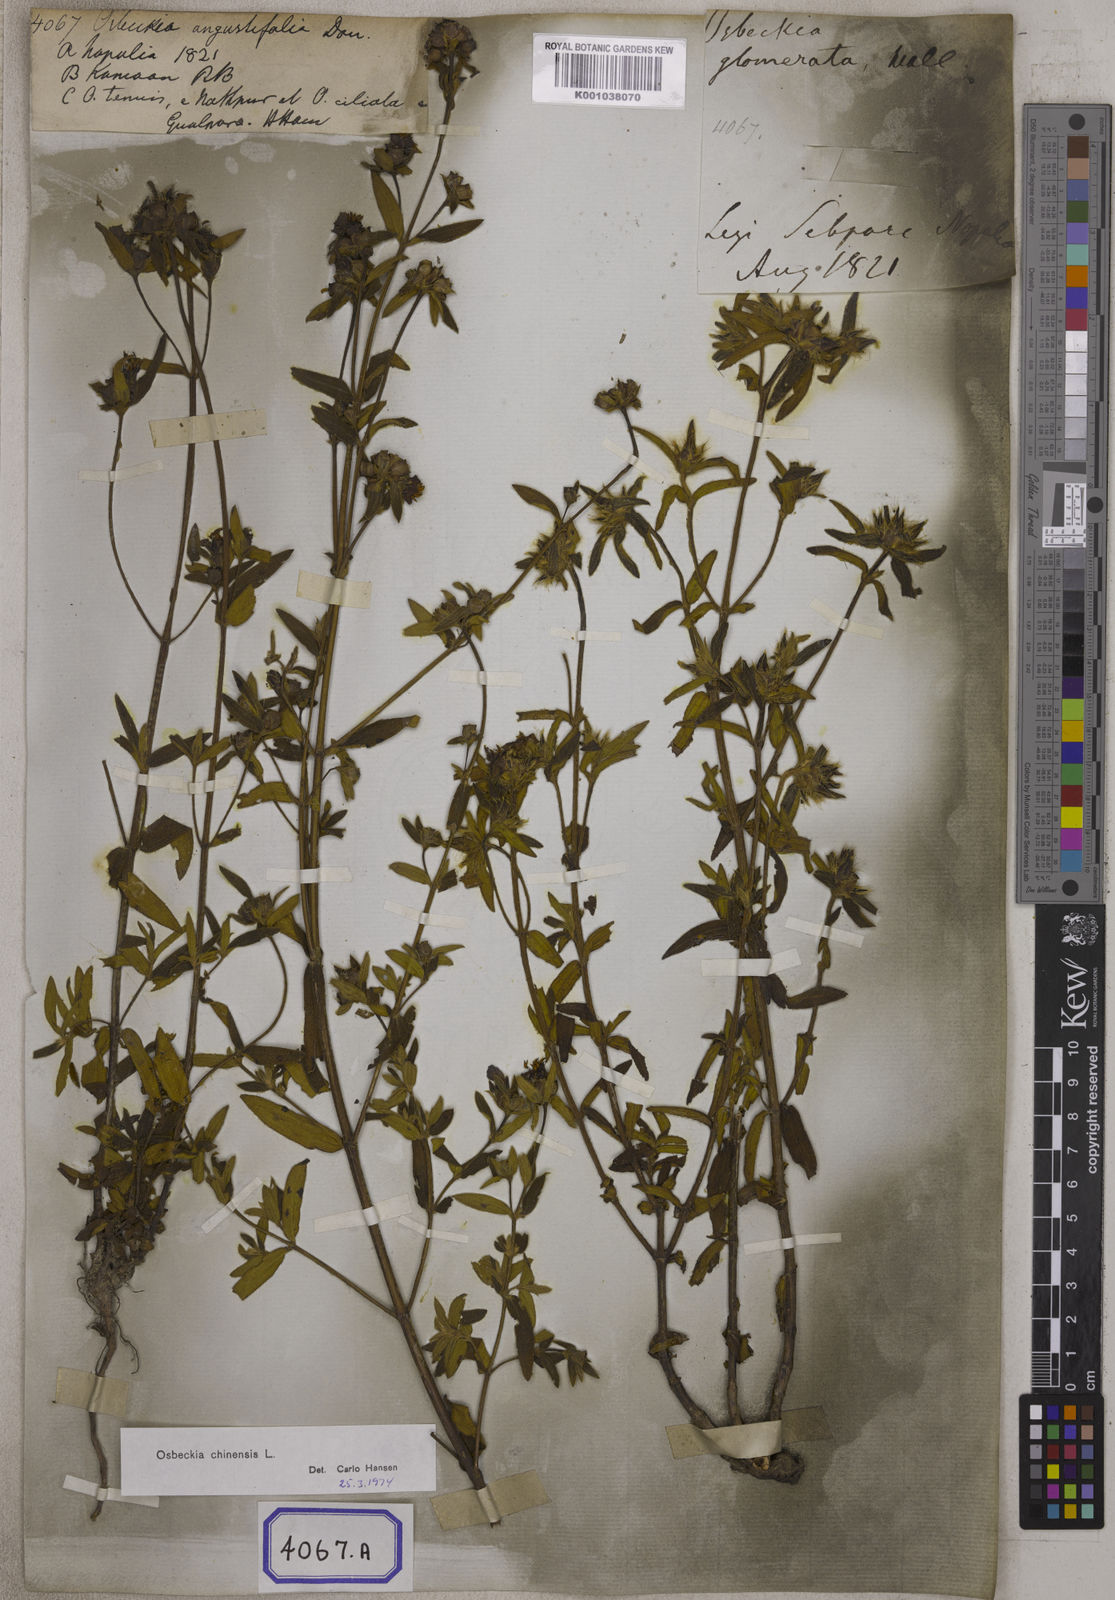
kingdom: Plantae
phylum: Tracheophyta
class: Magnoliopsida
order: Myrtales
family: Melastomataceae
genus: Osbeckia
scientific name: Osbeckia chinensis
